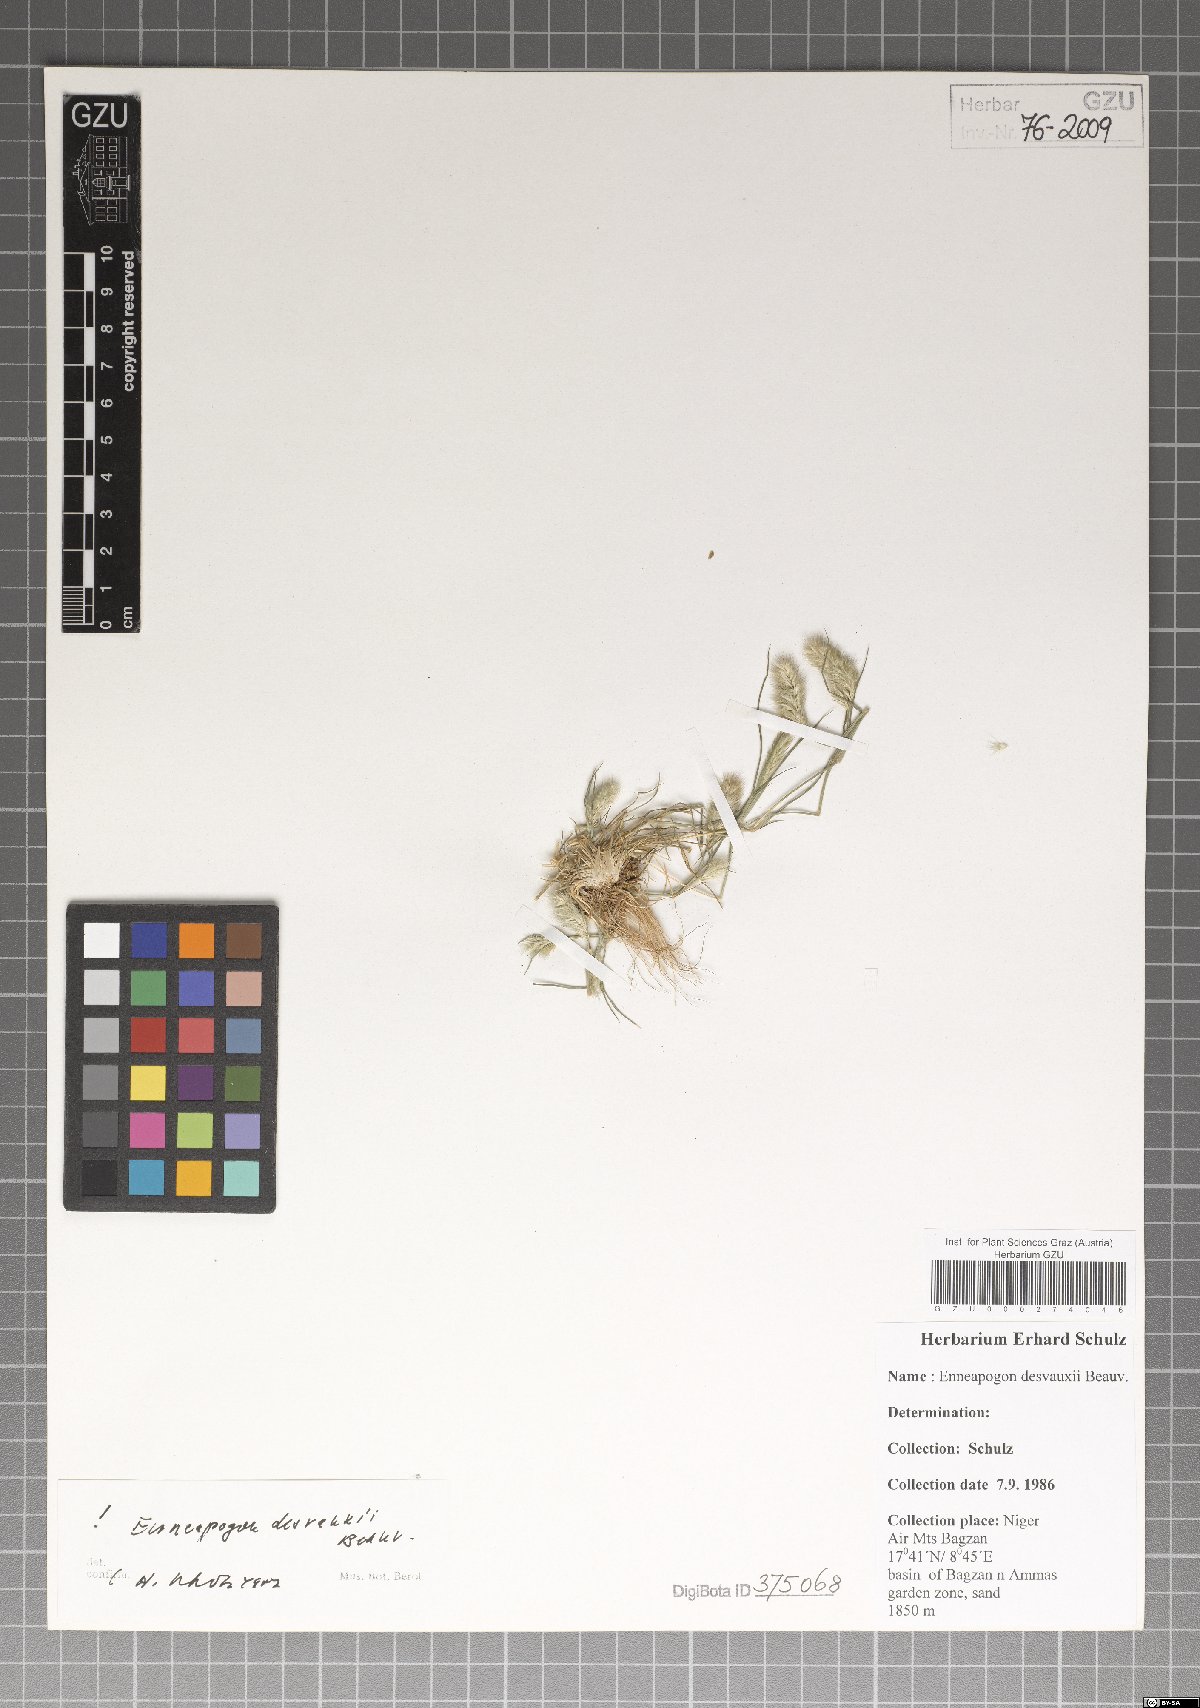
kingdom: Plantae
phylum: Tracheophyta
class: Liliopsida
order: Poales
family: Poaceae
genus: Enneapogon
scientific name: Enneapogon desvauxii
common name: Feather pappus grass
